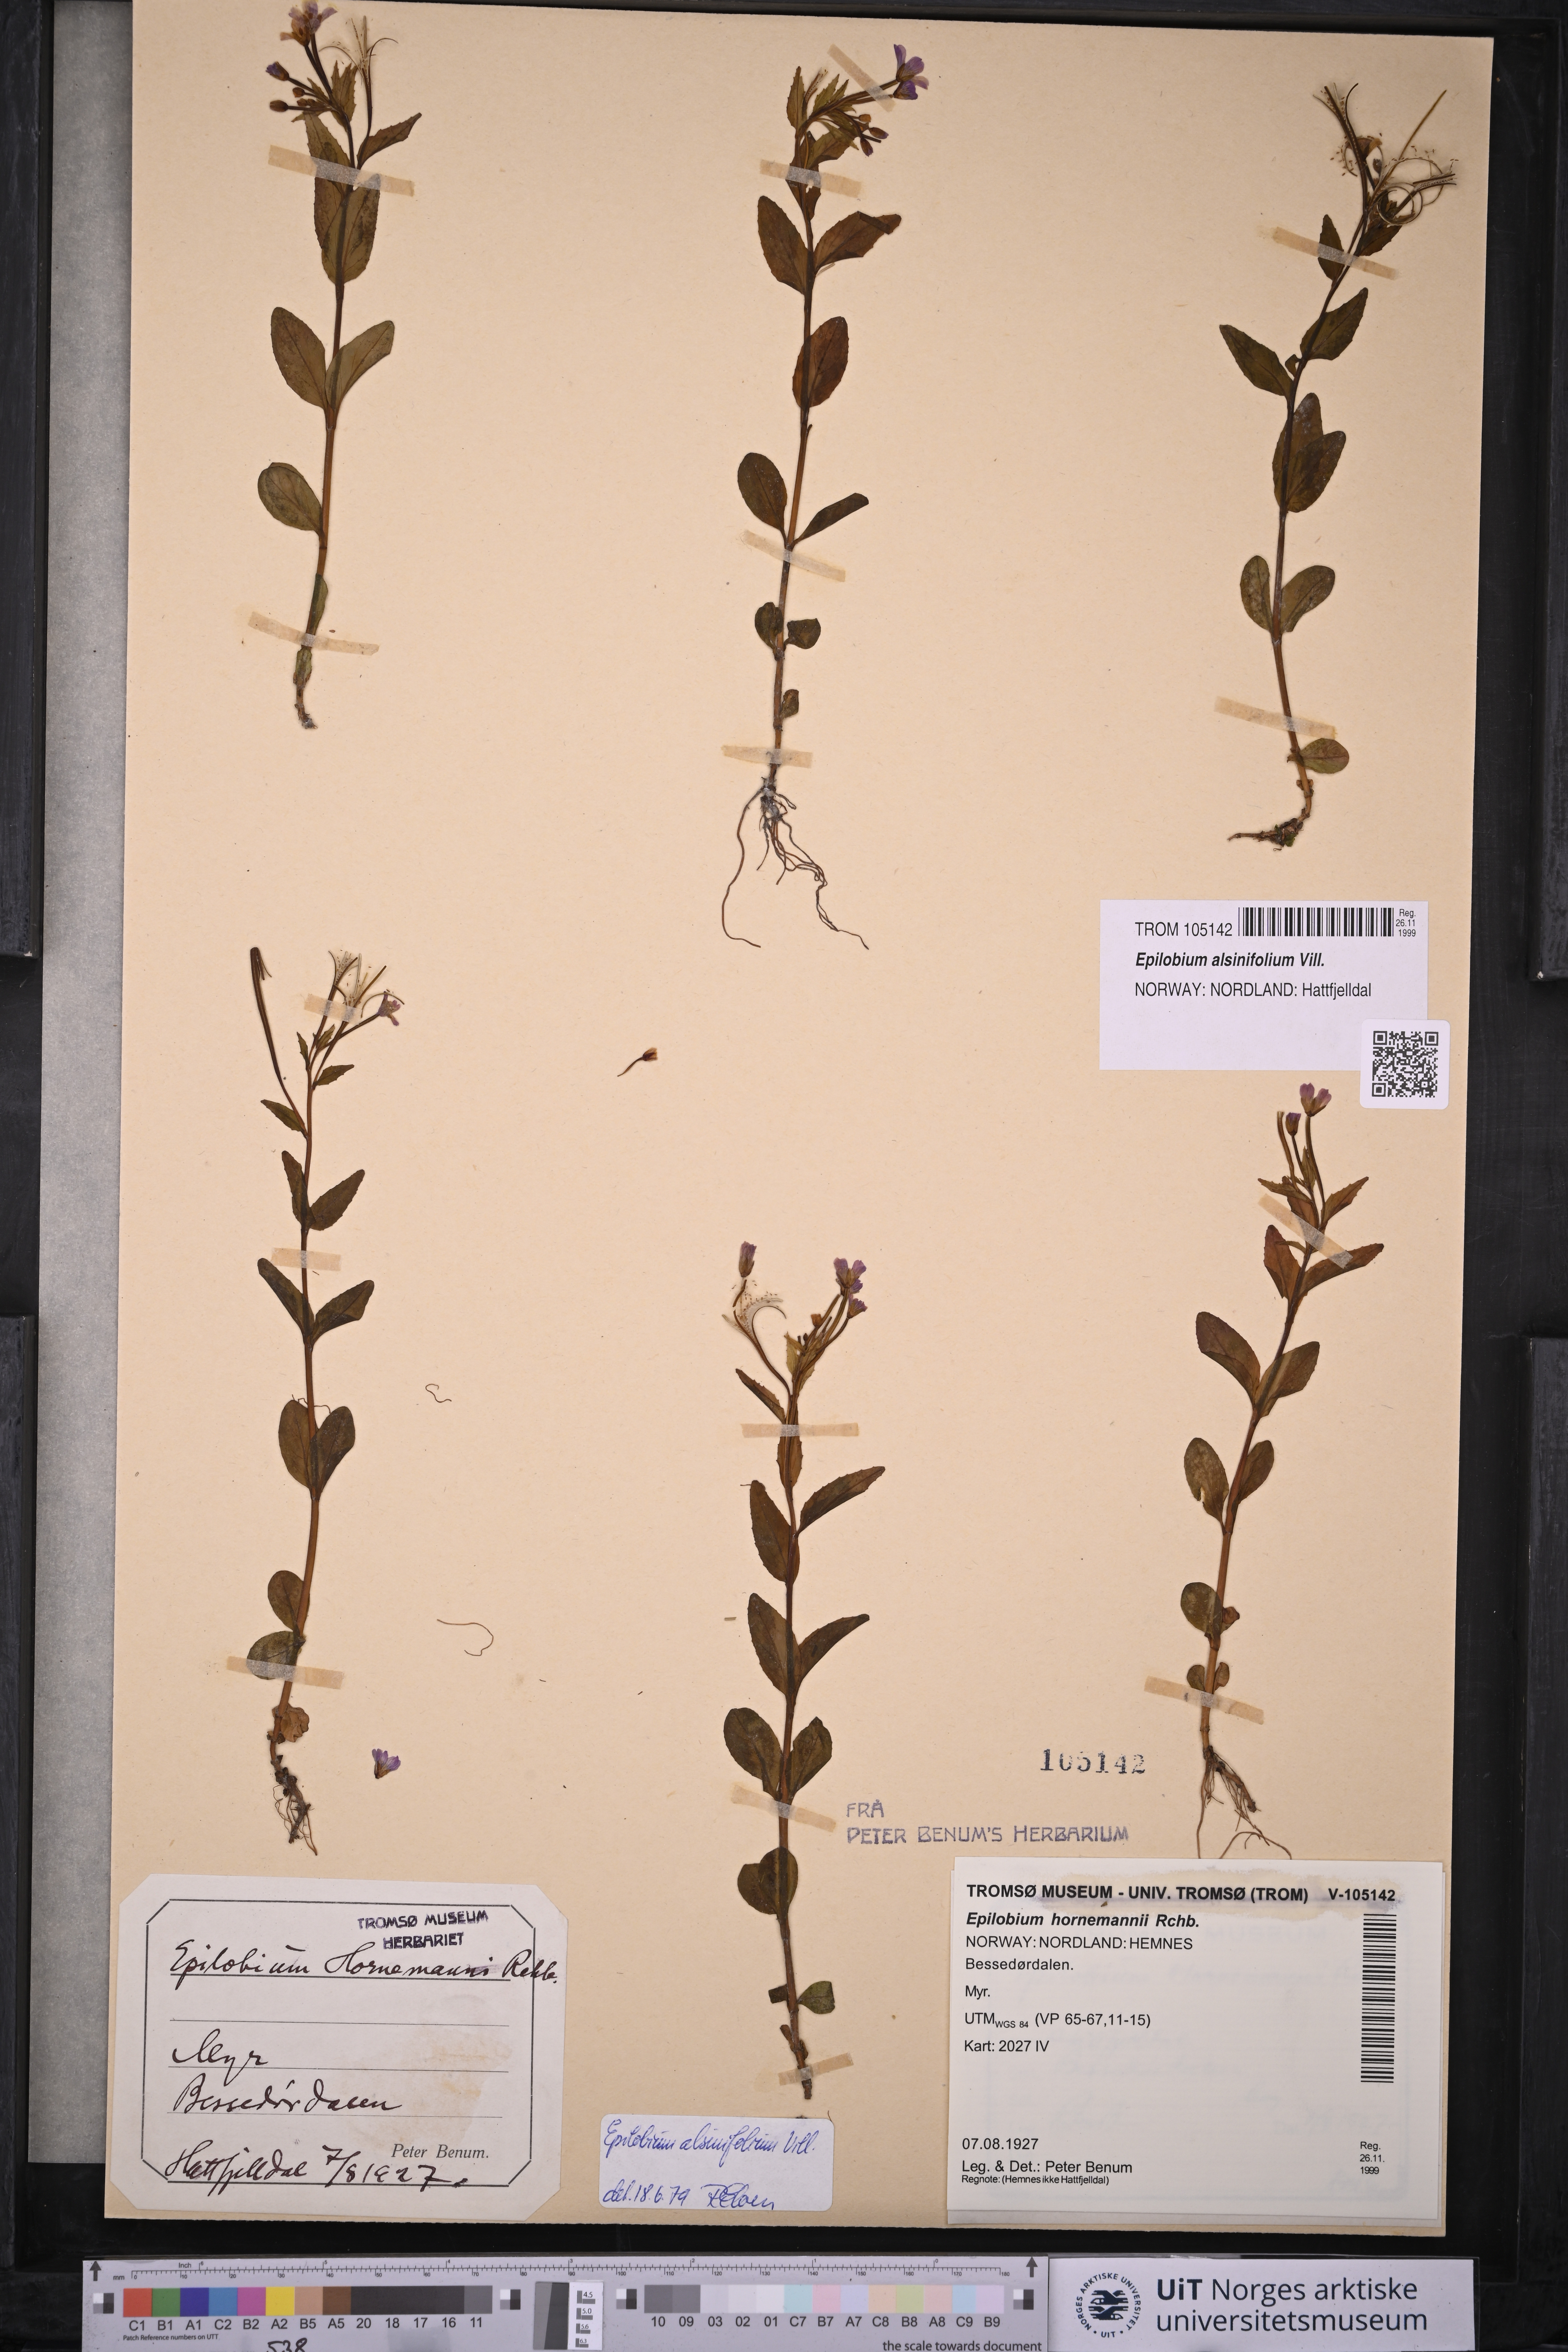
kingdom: Plantae
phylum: Tracheophyta
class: Magnoliopsida
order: Myrtales
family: Onagraceae
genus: Epilobium
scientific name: Epilobium alsinifolium
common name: Chickweed willowherb
